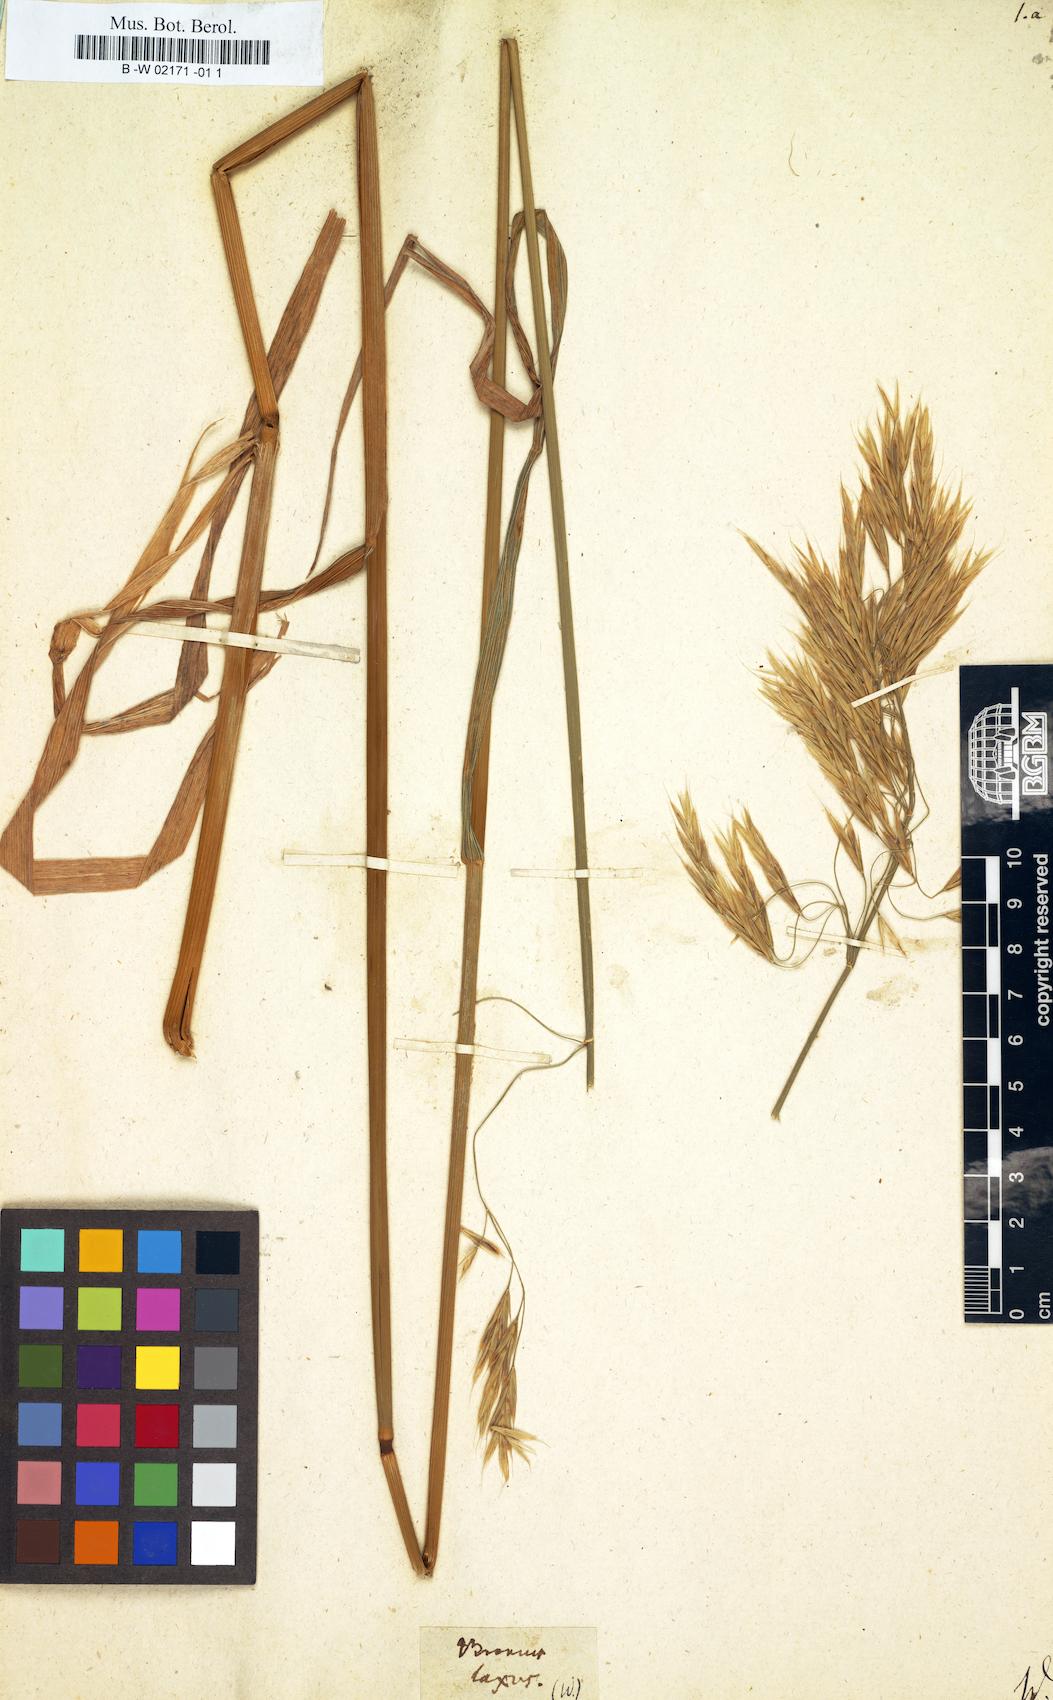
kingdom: Plantae
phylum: Tracheophyta
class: Liliopsida
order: Poales
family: Poaceae
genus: Bromus
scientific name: Bromus inermis
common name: Smooth brome
